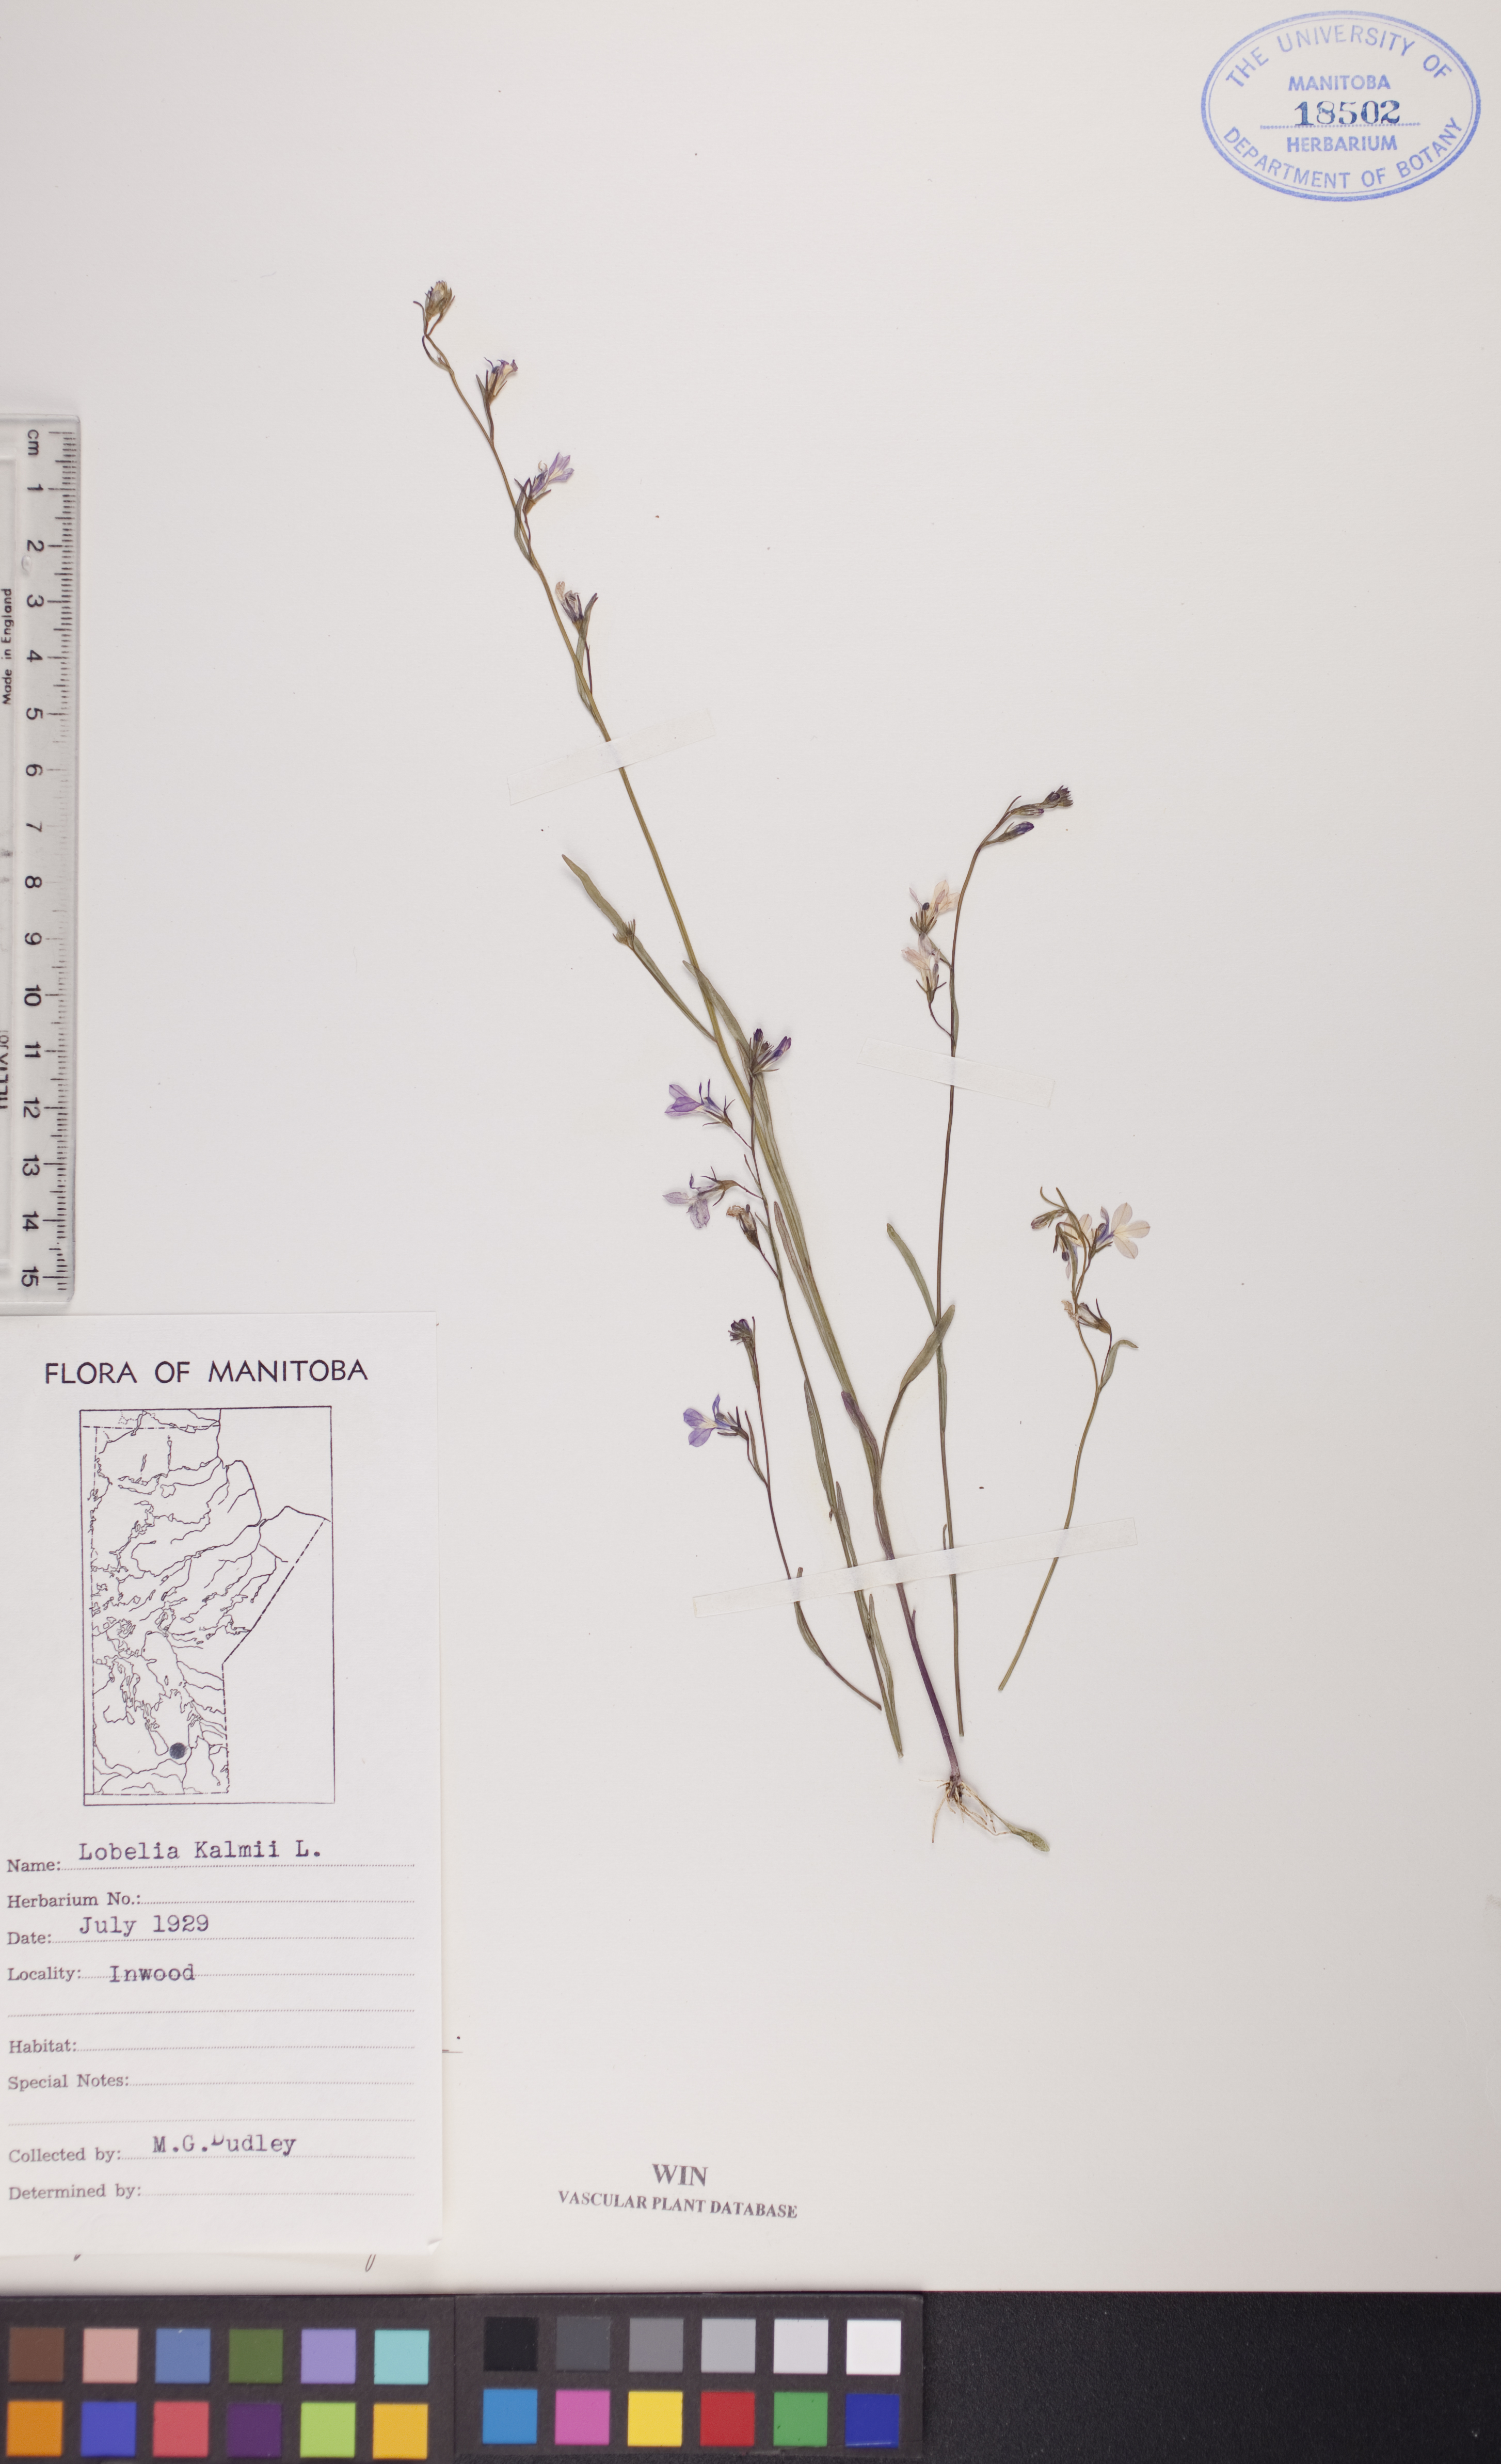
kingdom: Plantae
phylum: Tracheophyta
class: Magnoliopsida
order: Asterales
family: Campanulaceae
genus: Lobelia
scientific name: Lobelia kalmii
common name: Kalm's lobelia
